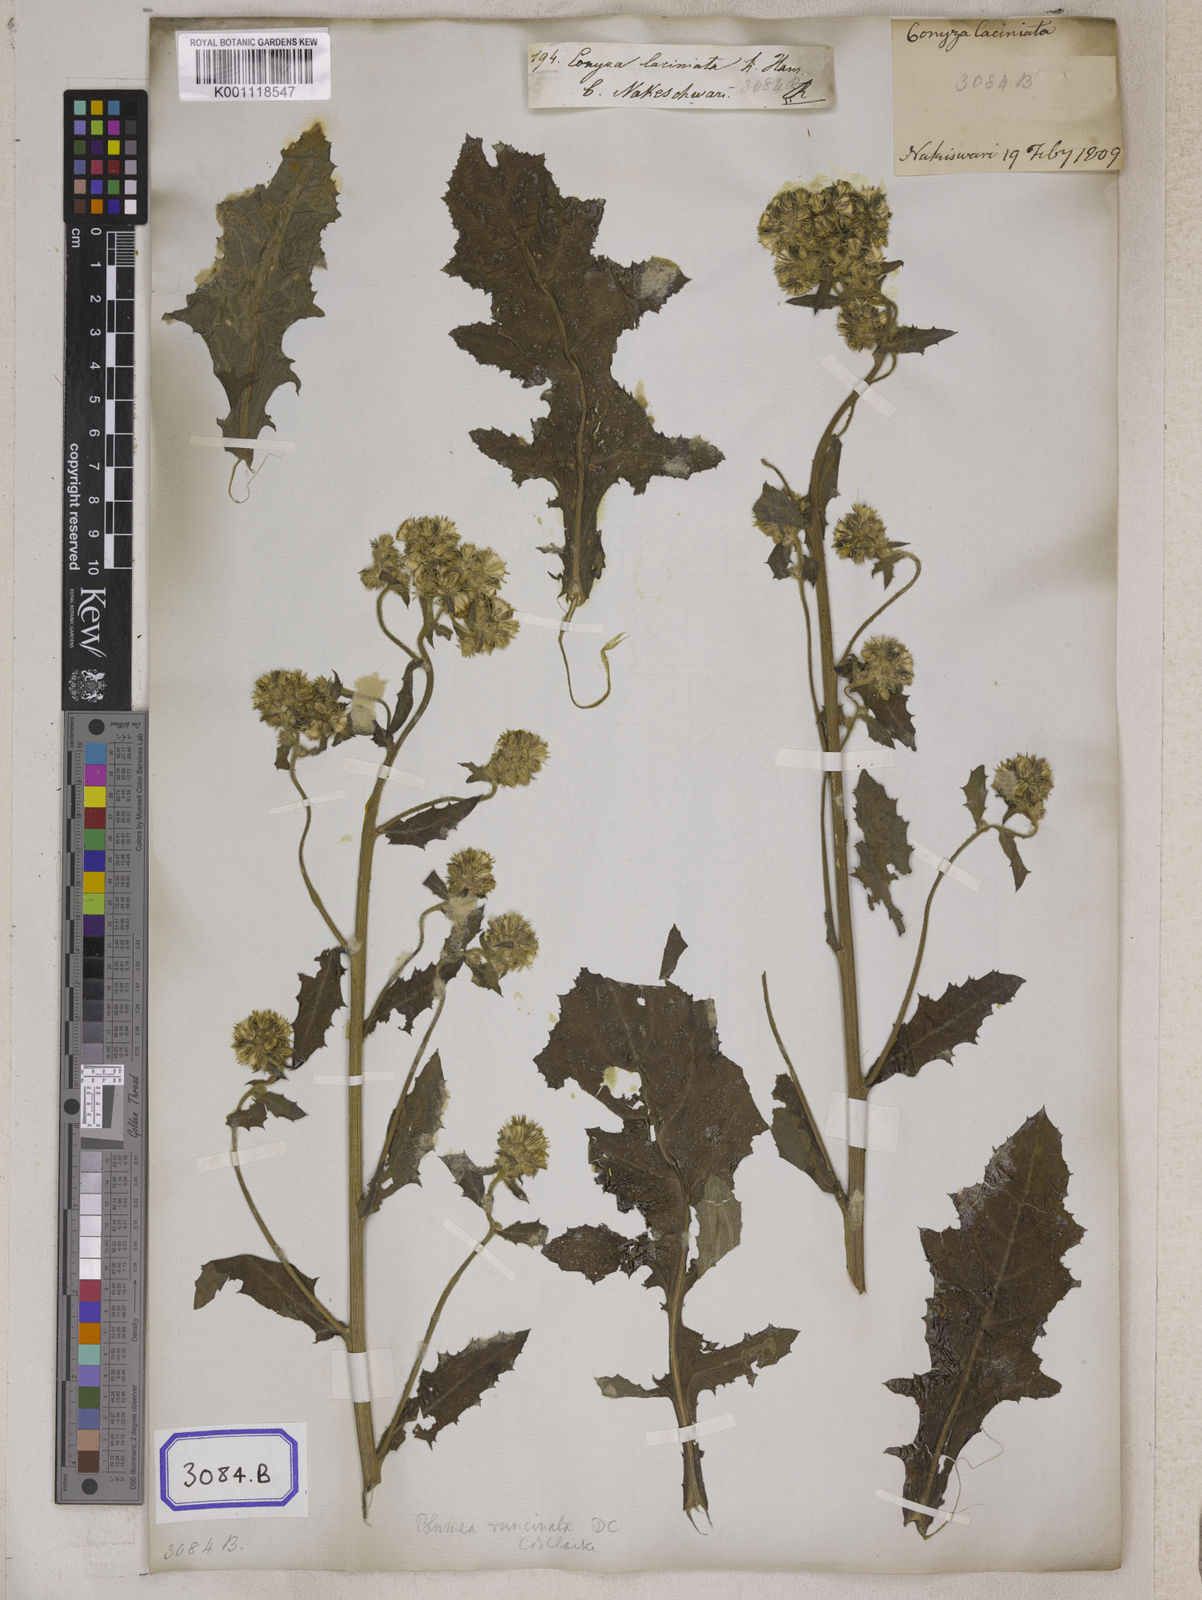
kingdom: Plantae
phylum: Tracheophyta
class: Magnoliopsida
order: Asterales
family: Asteraceae
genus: Blumea
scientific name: Blumea sinuata
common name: Cutleaf false oxtongue
